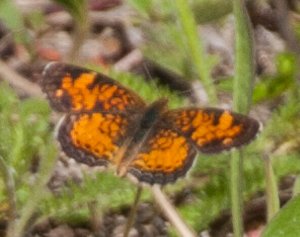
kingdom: Animalia
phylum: Arthropoda
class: Insecta
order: Lepidoptera
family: Nymphalidae
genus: Phyciodes
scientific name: Phyciodes tharos
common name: Pearl Crescent
